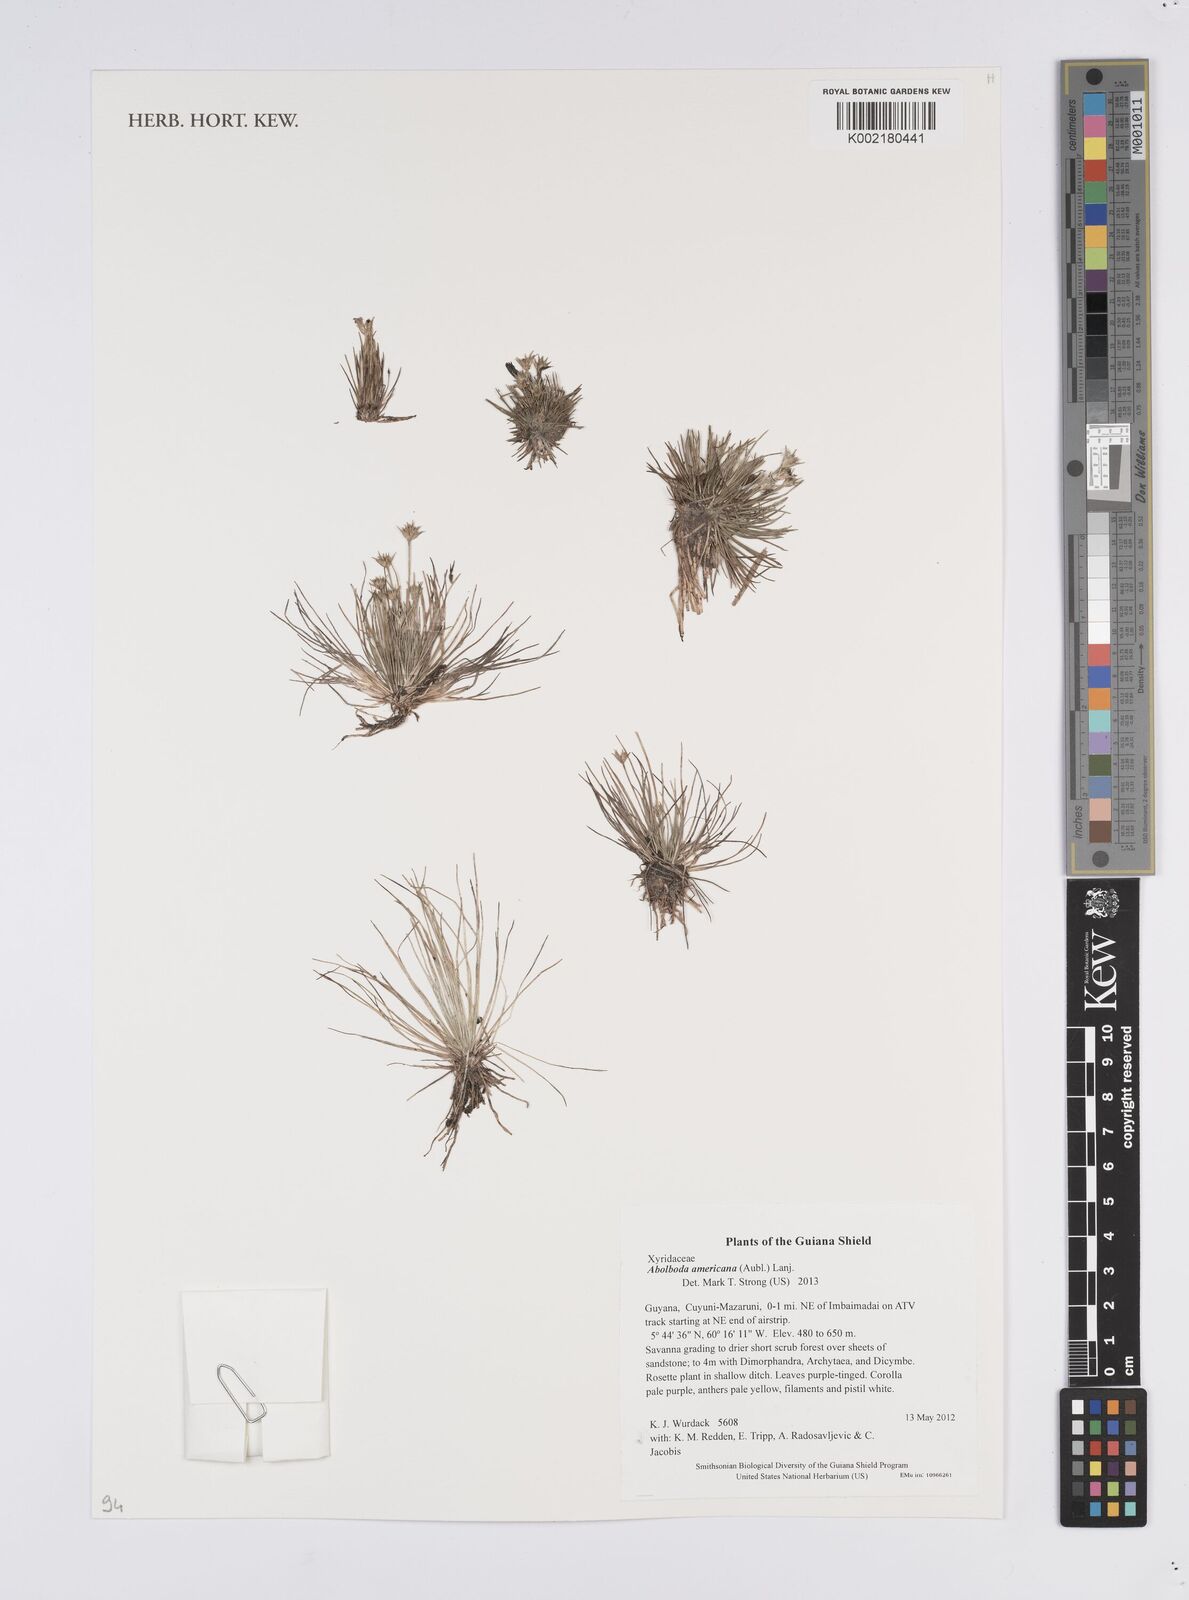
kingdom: Plantae
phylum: Tracheophyta
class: Liliopsida
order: Poales
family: Xyridaceae
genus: Abolboda
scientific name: Abolboda americana
